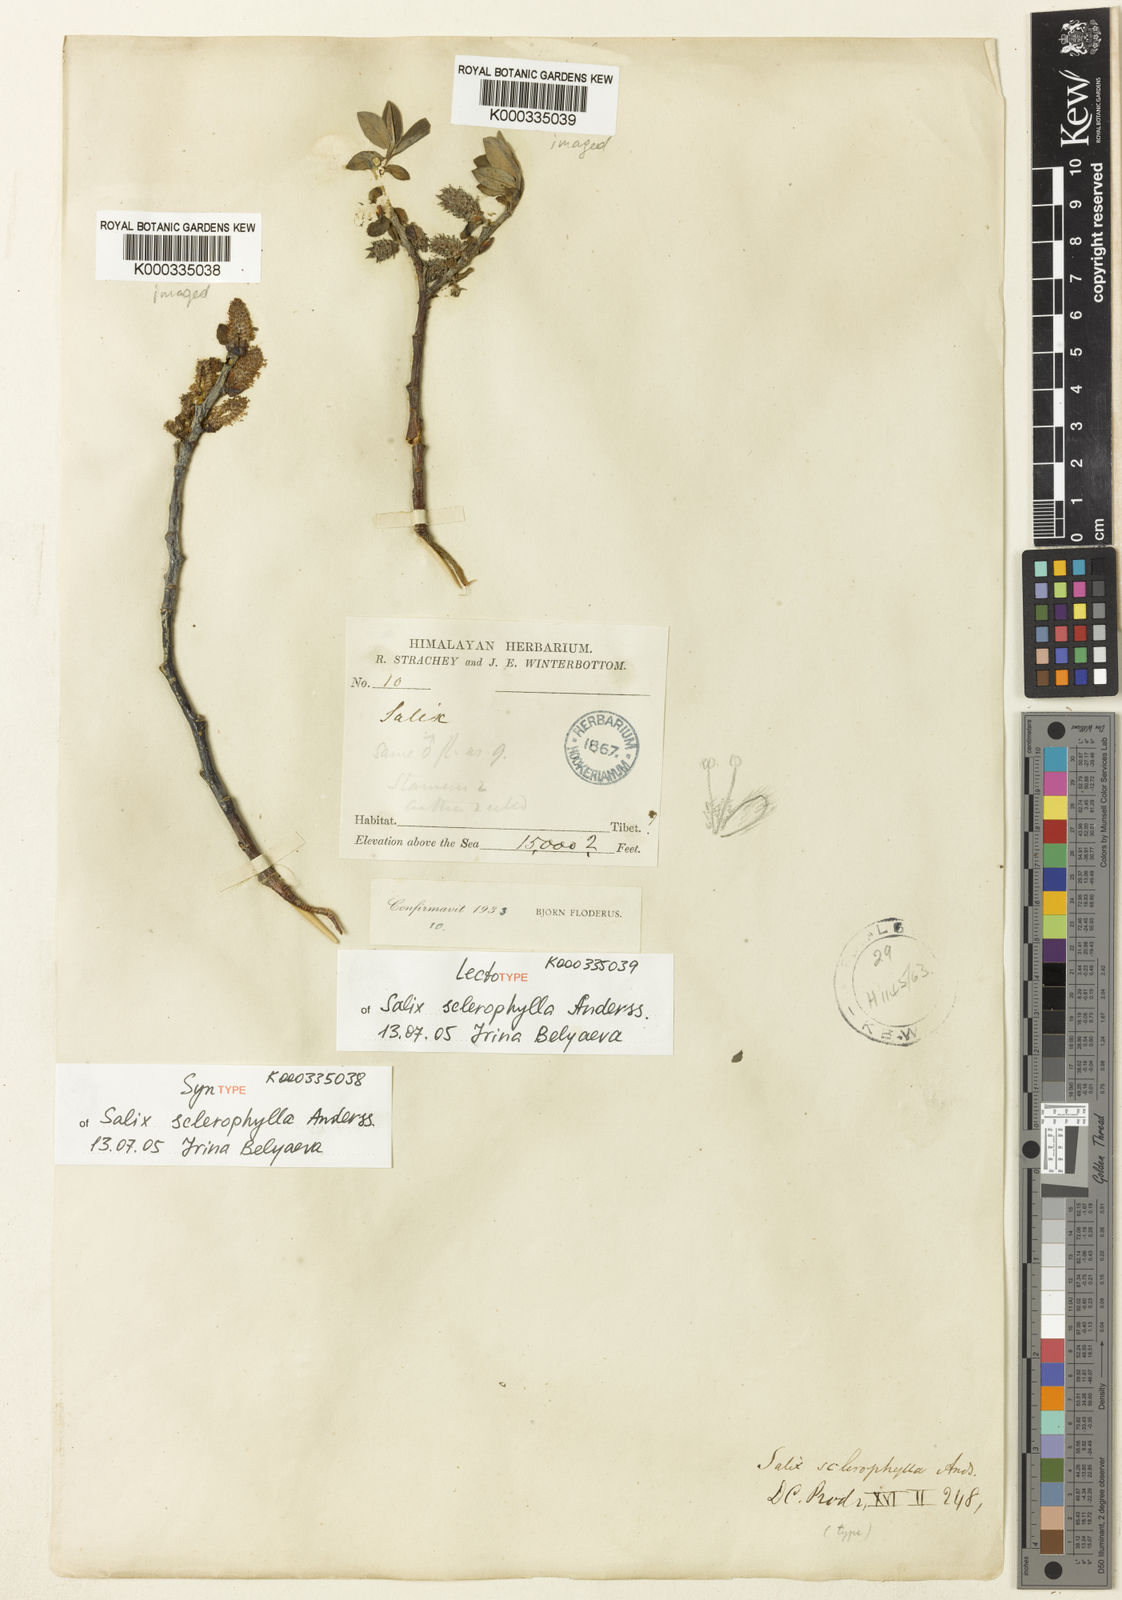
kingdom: Plantae
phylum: Tracheophyta
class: Magnoliopsida
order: Malpighiales
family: Salicaceae
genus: Salix
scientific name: Salix sclerophylla
